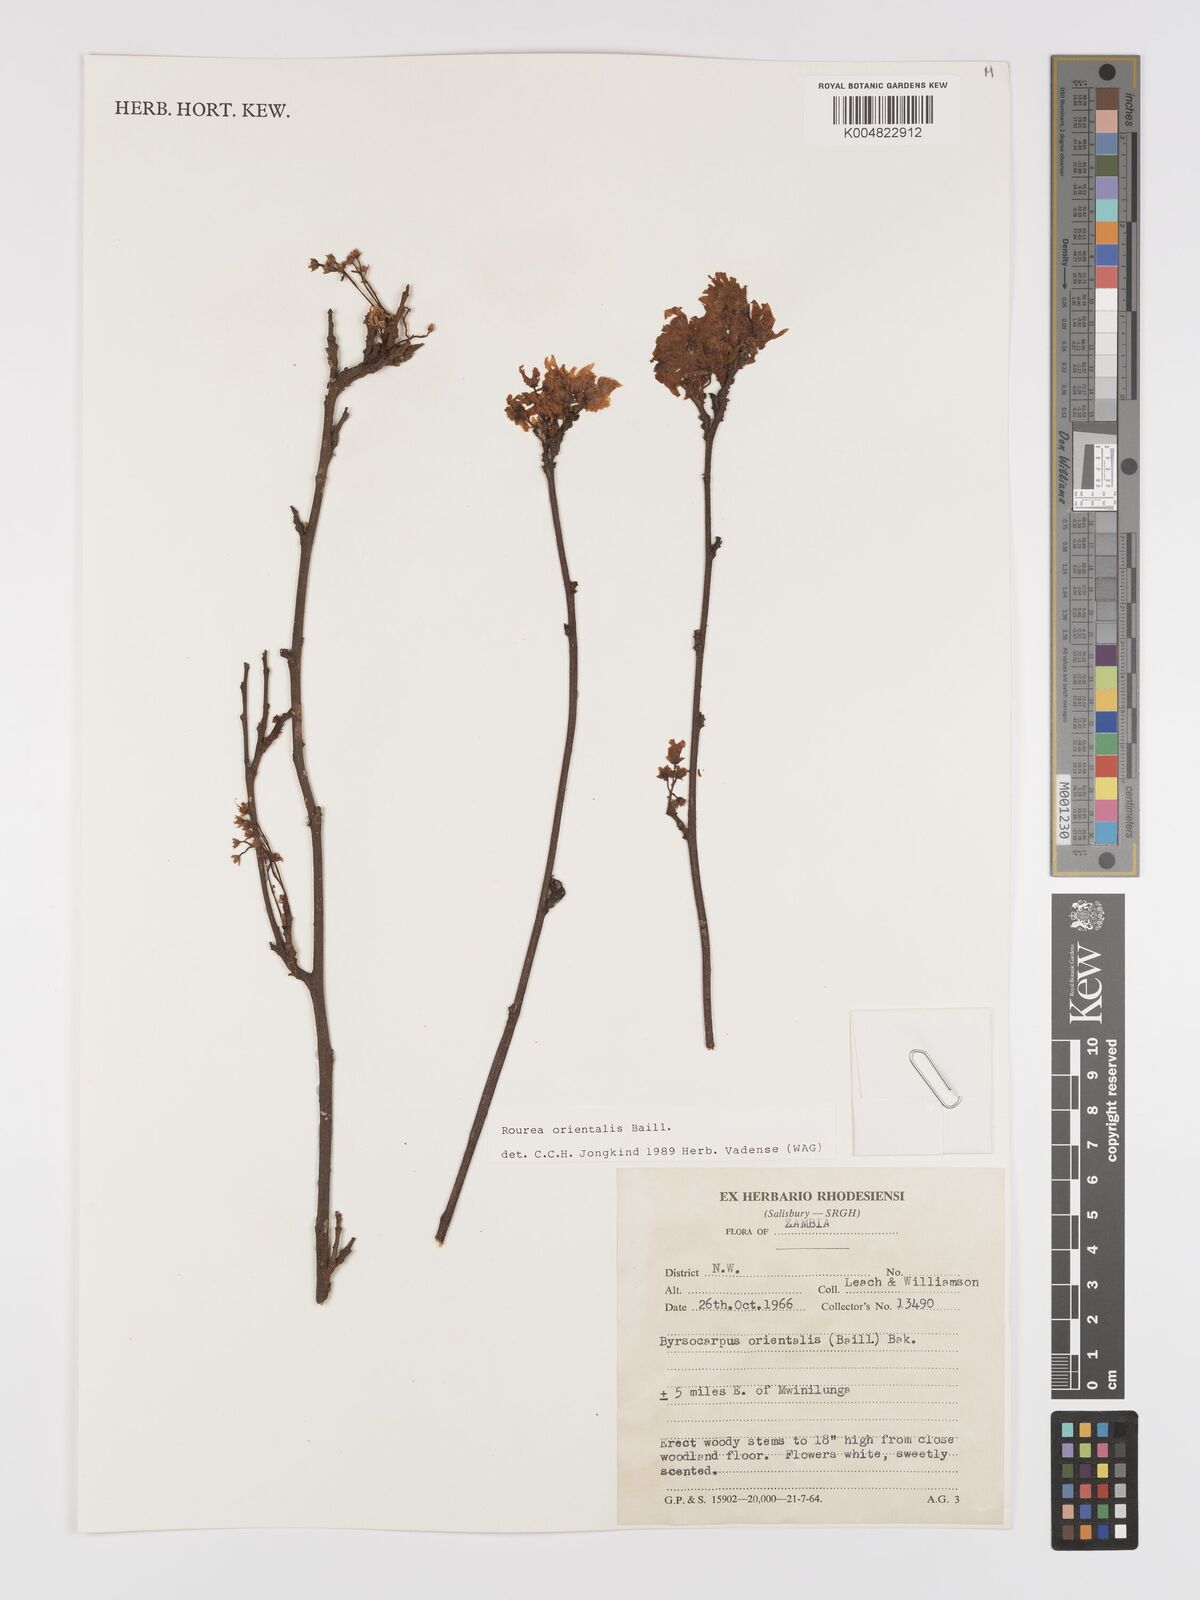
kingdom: Plantae
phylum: Tracheophyta
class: Magnoliopsida
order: Oxalidales
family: Connaraceae
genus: Rourea
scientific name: Rourea orientalis
